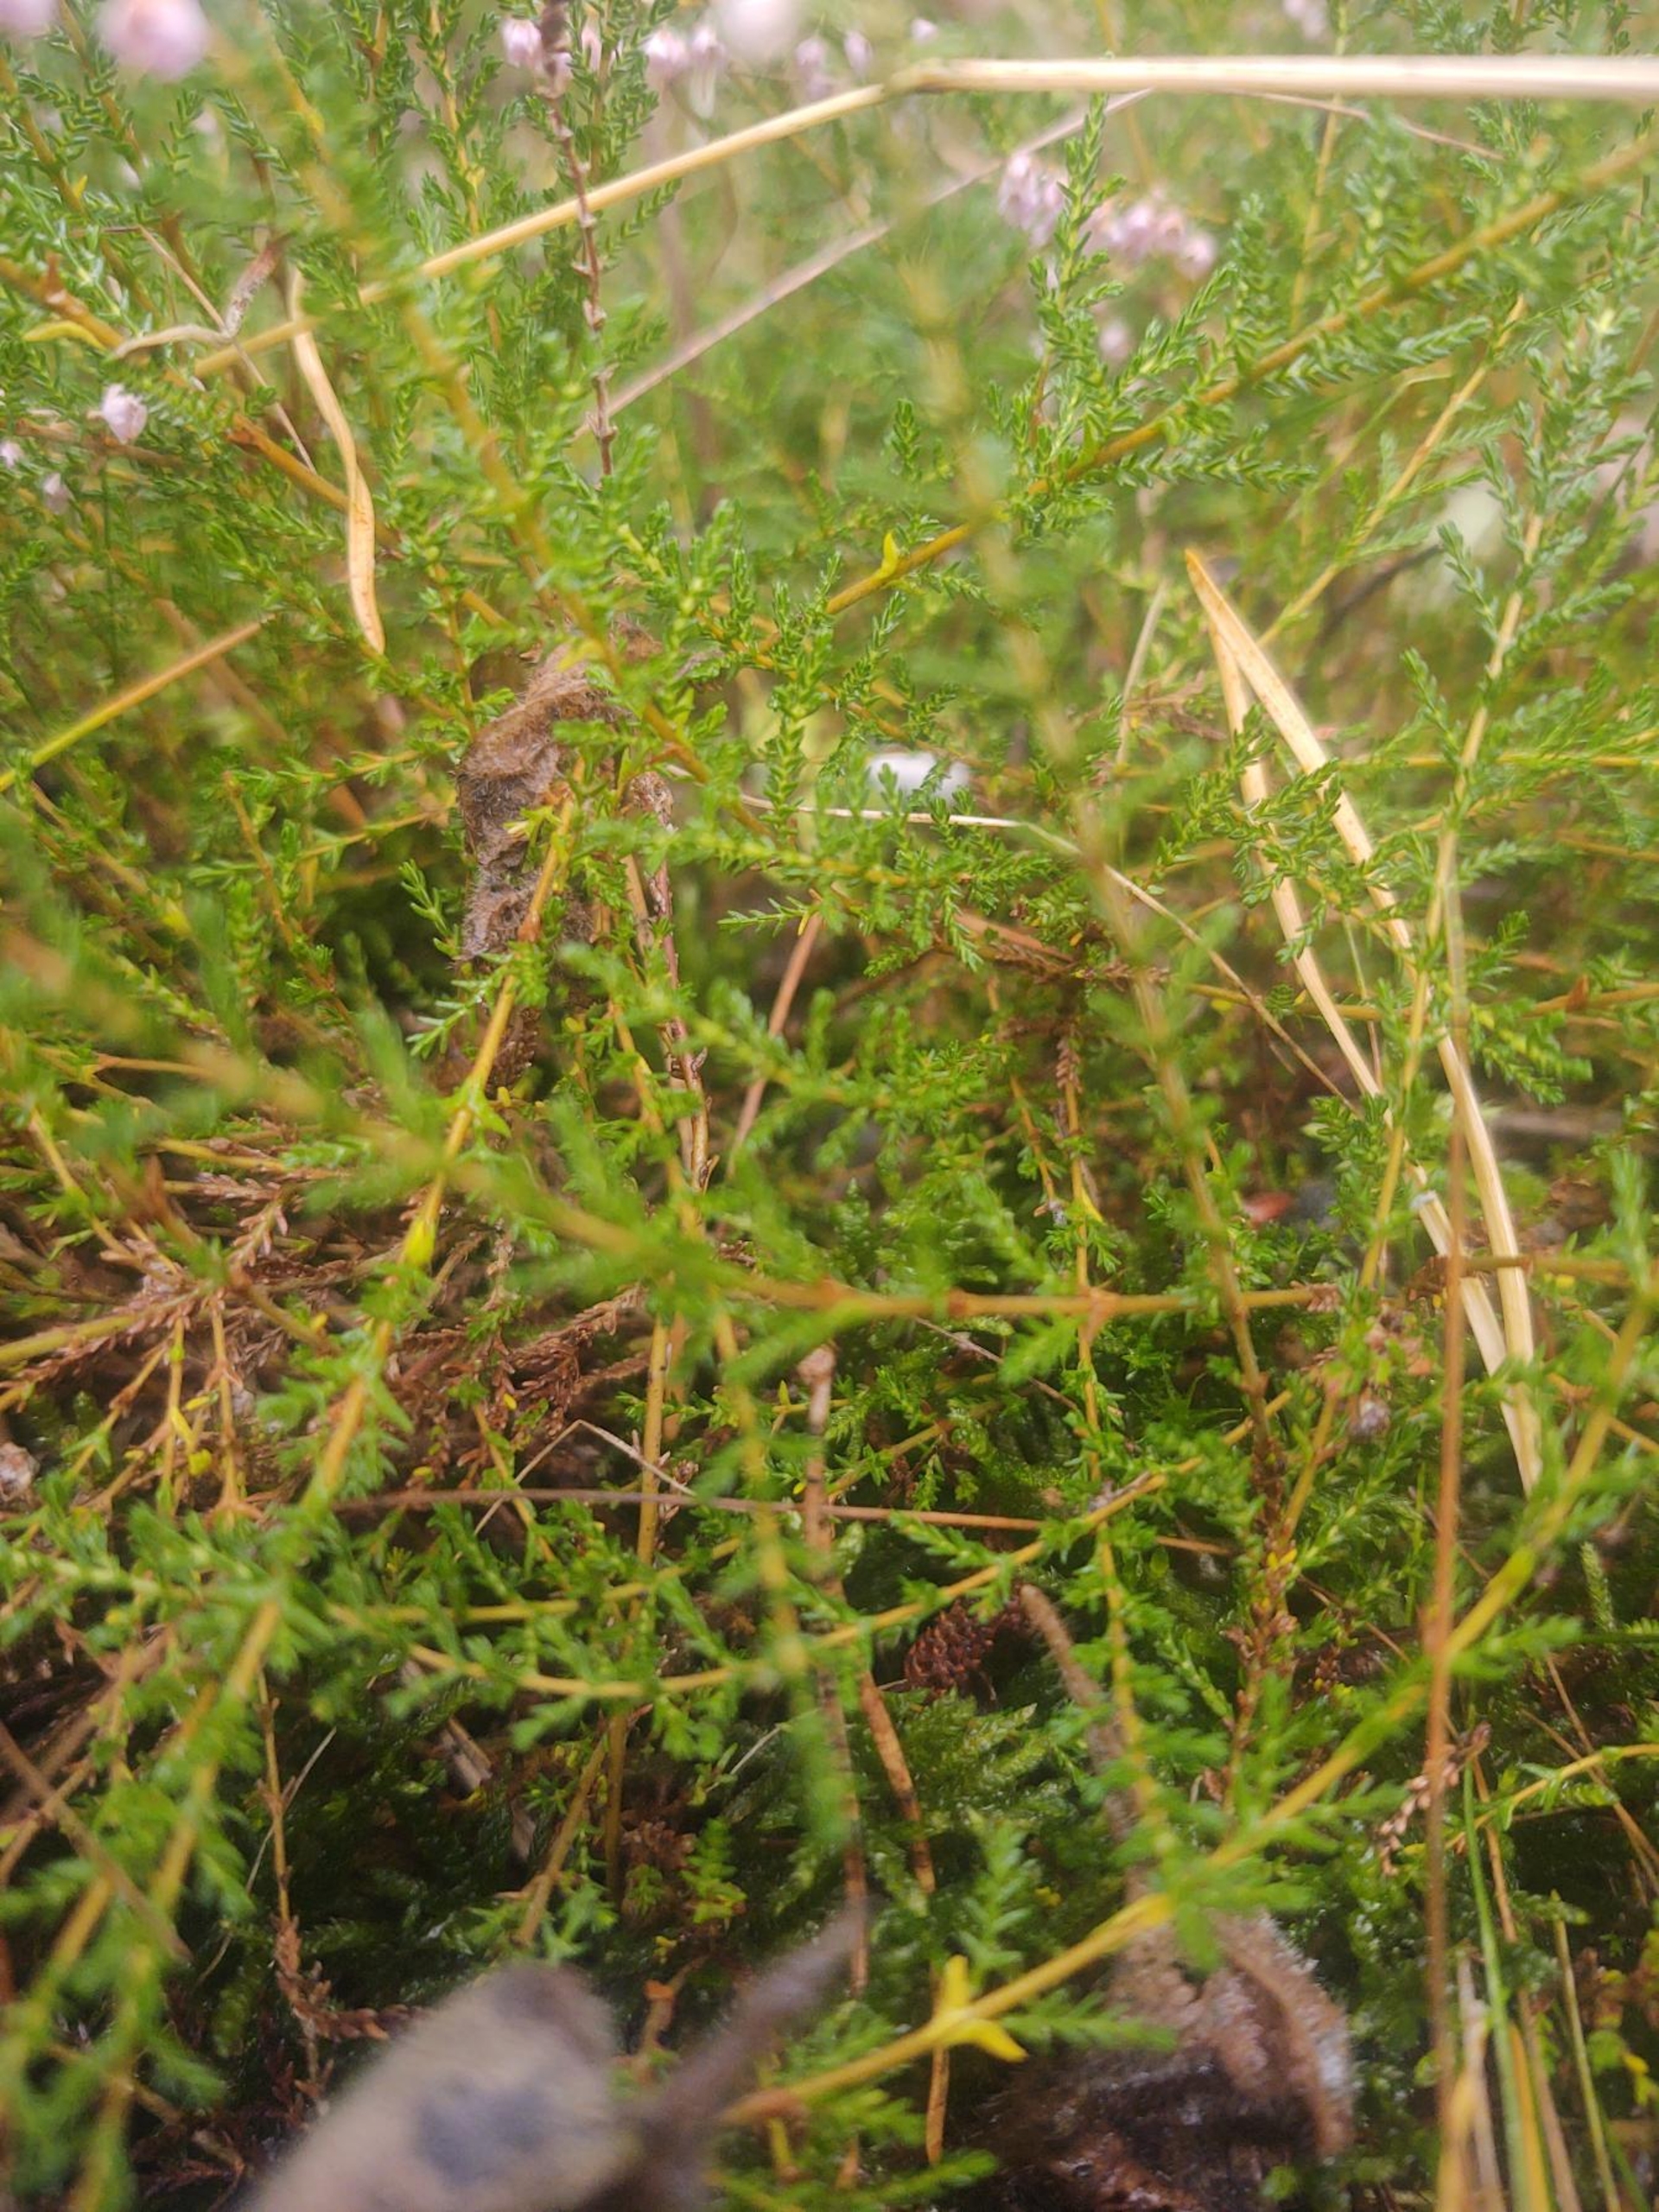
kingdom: Plantae
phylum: Tracheophyta
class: Magnoliopsida
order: Ericales
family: Ericaceae
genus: Calluna
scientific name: Calluna vulgaris
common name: Hedelyng
